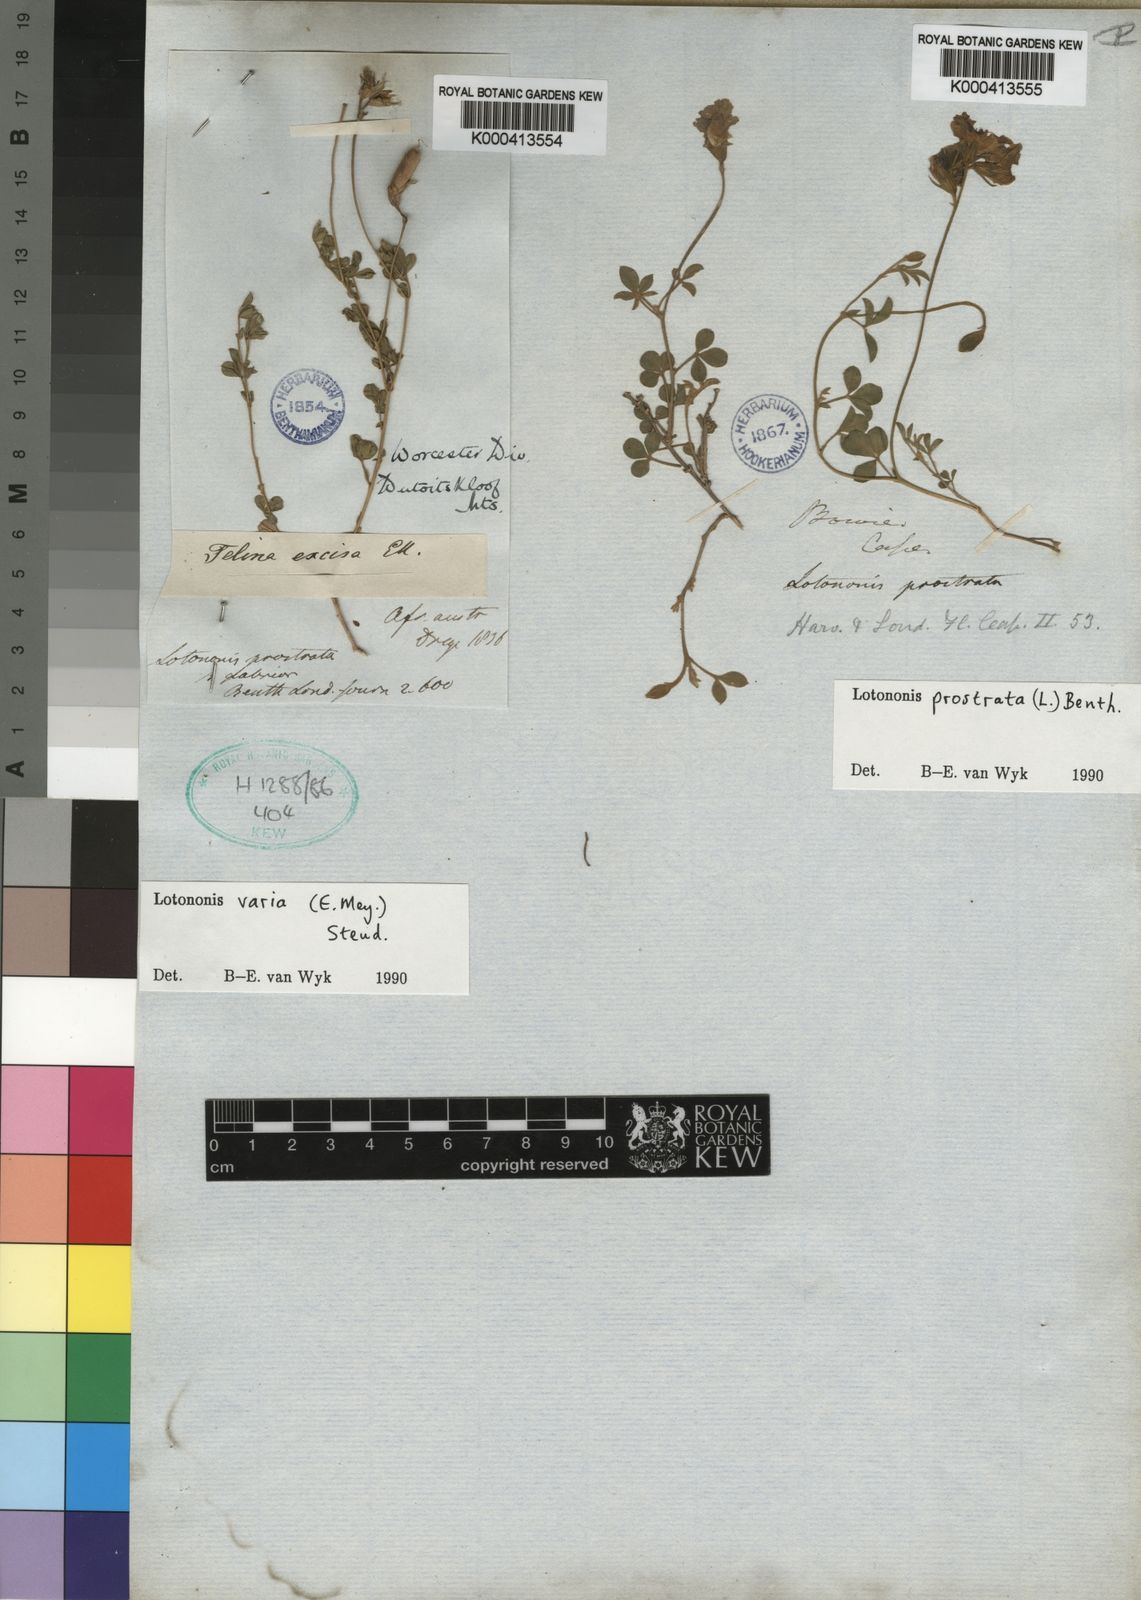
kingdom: Plantae
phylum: Tracheophyta
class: Magnoliopsida
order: Fabales
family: Fabaceae
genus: Lotononis
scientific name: Lotononis prostrata
